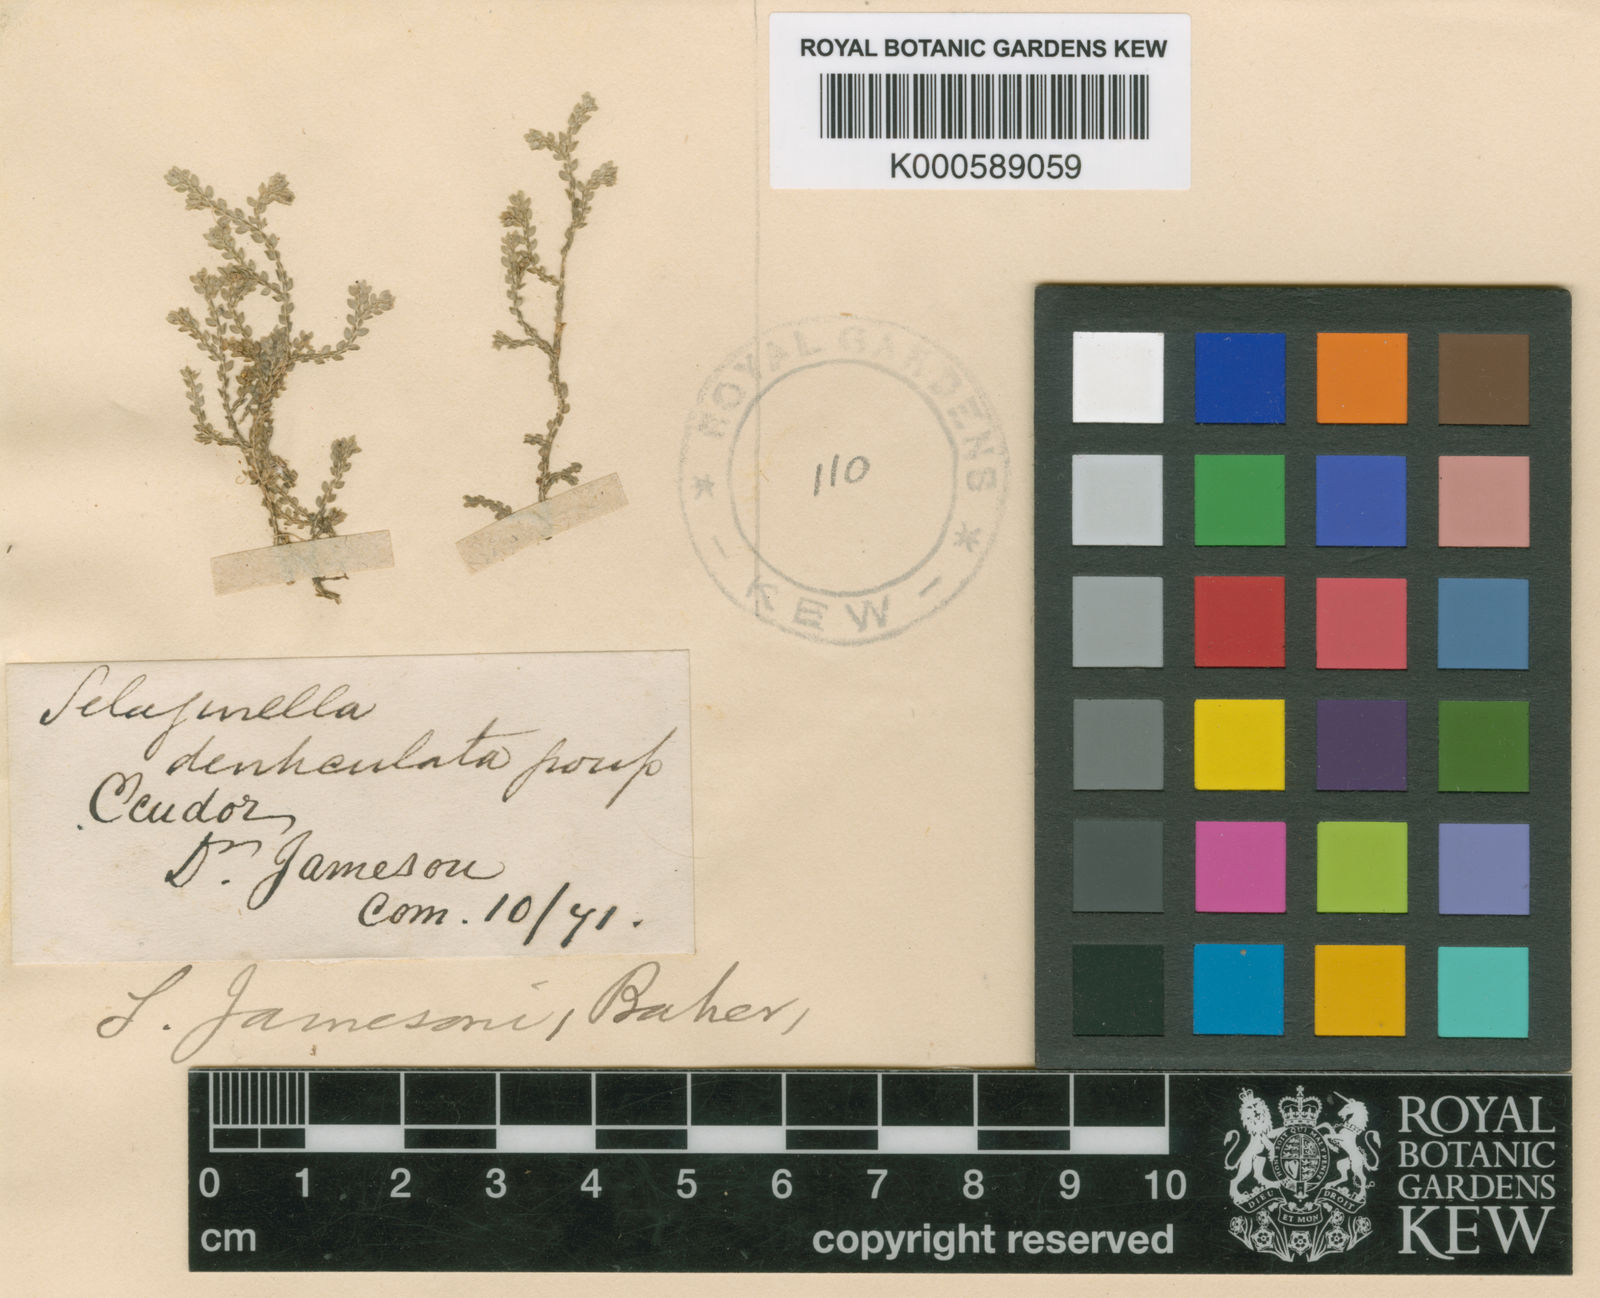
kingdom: Plantae
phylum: Tracheophyta
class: Lycopodiopsida
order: Selaginellales
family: Selaginellaceae
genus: Selaginella
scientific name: Selaginella microphylla
